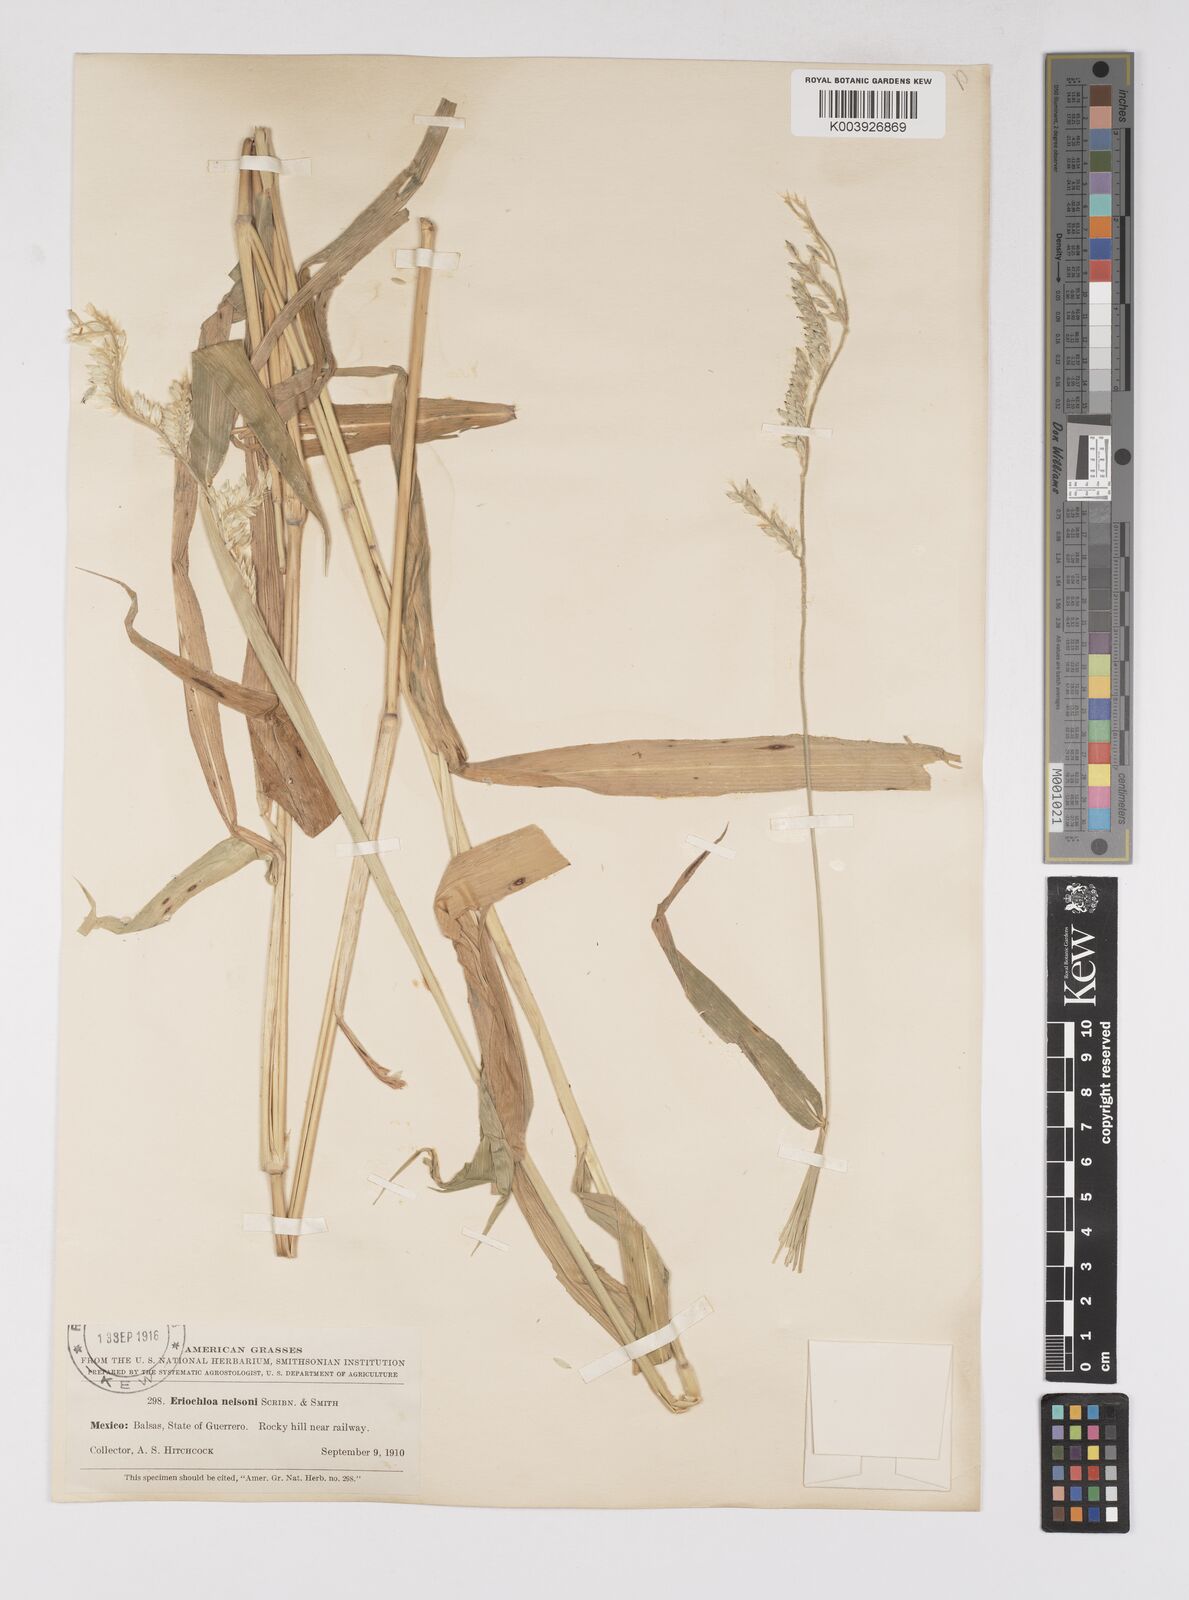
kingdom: Plantae
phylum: Tracheophyta
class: Liliopsida
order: Poales
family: Poaceae
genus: Eriochloa
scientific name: Eriochloa nelsonii
